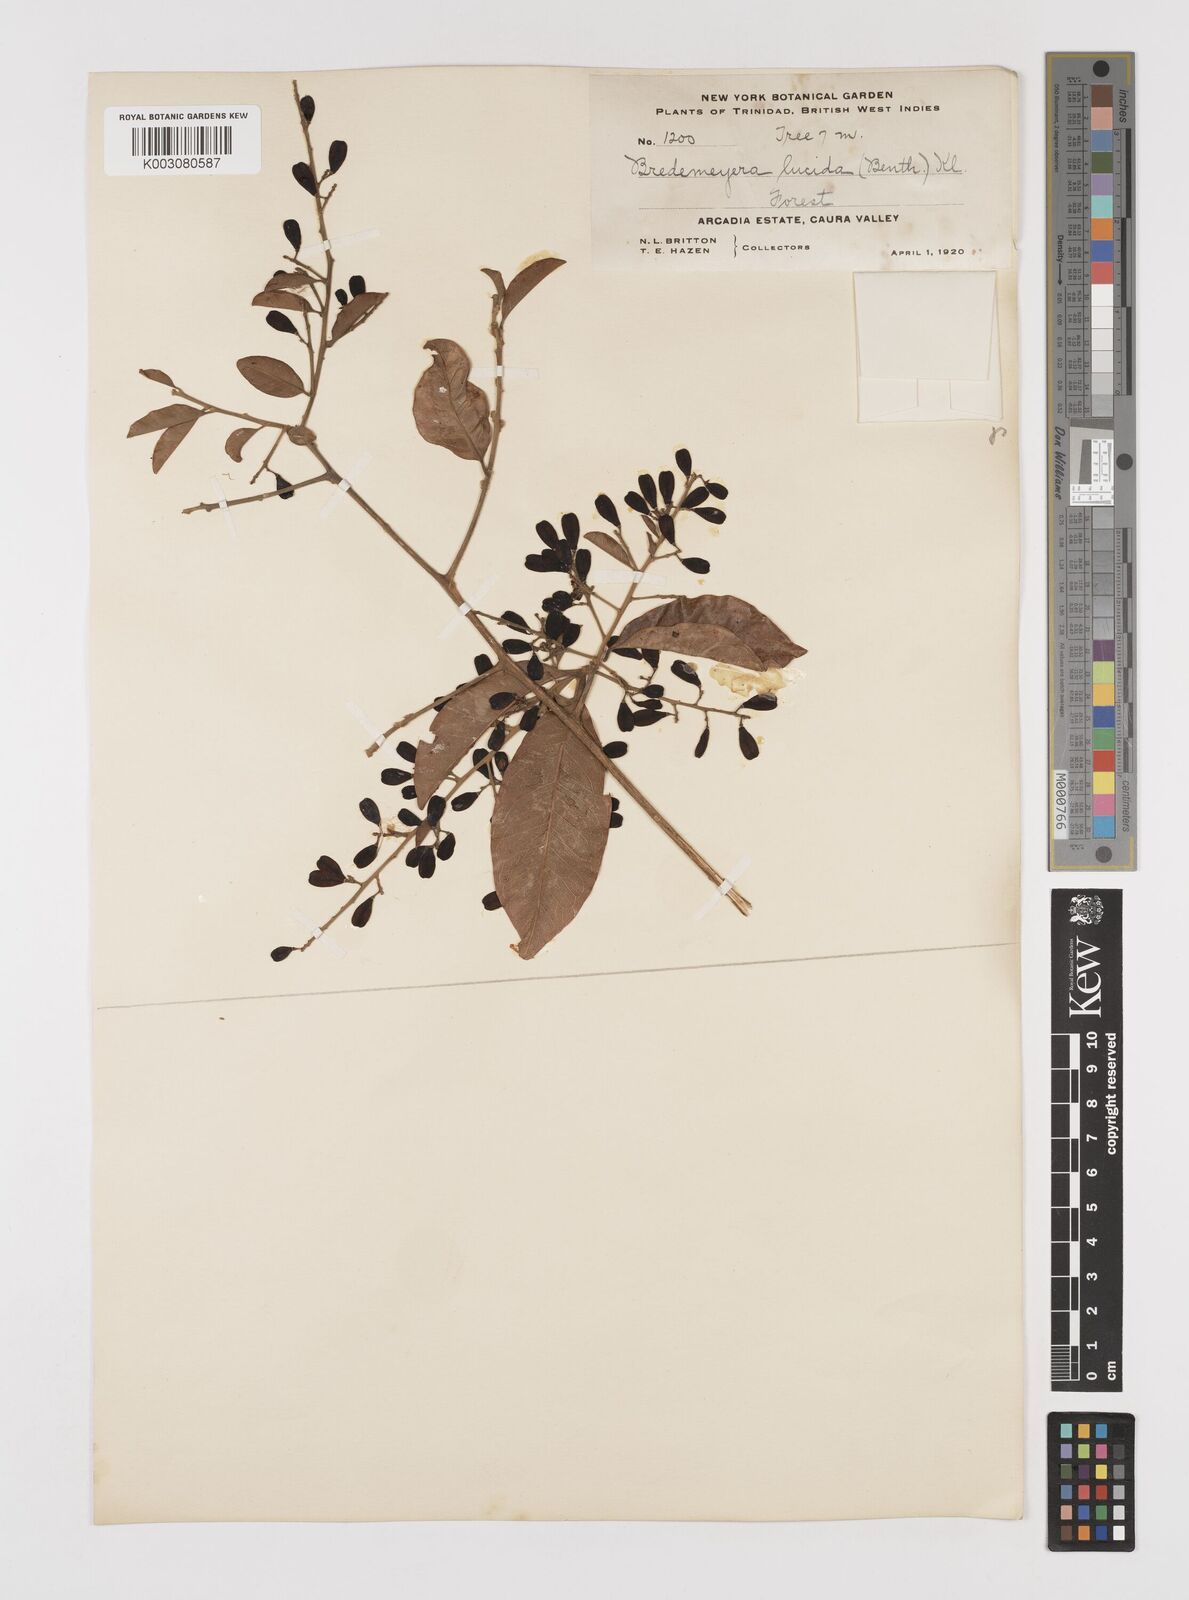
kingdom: Plantae
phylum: Tracheophyta
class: Magnoliopsida
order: Fabales
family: Polygalaceae
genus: Bredemeyera
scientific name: Bredemeyera lucida
